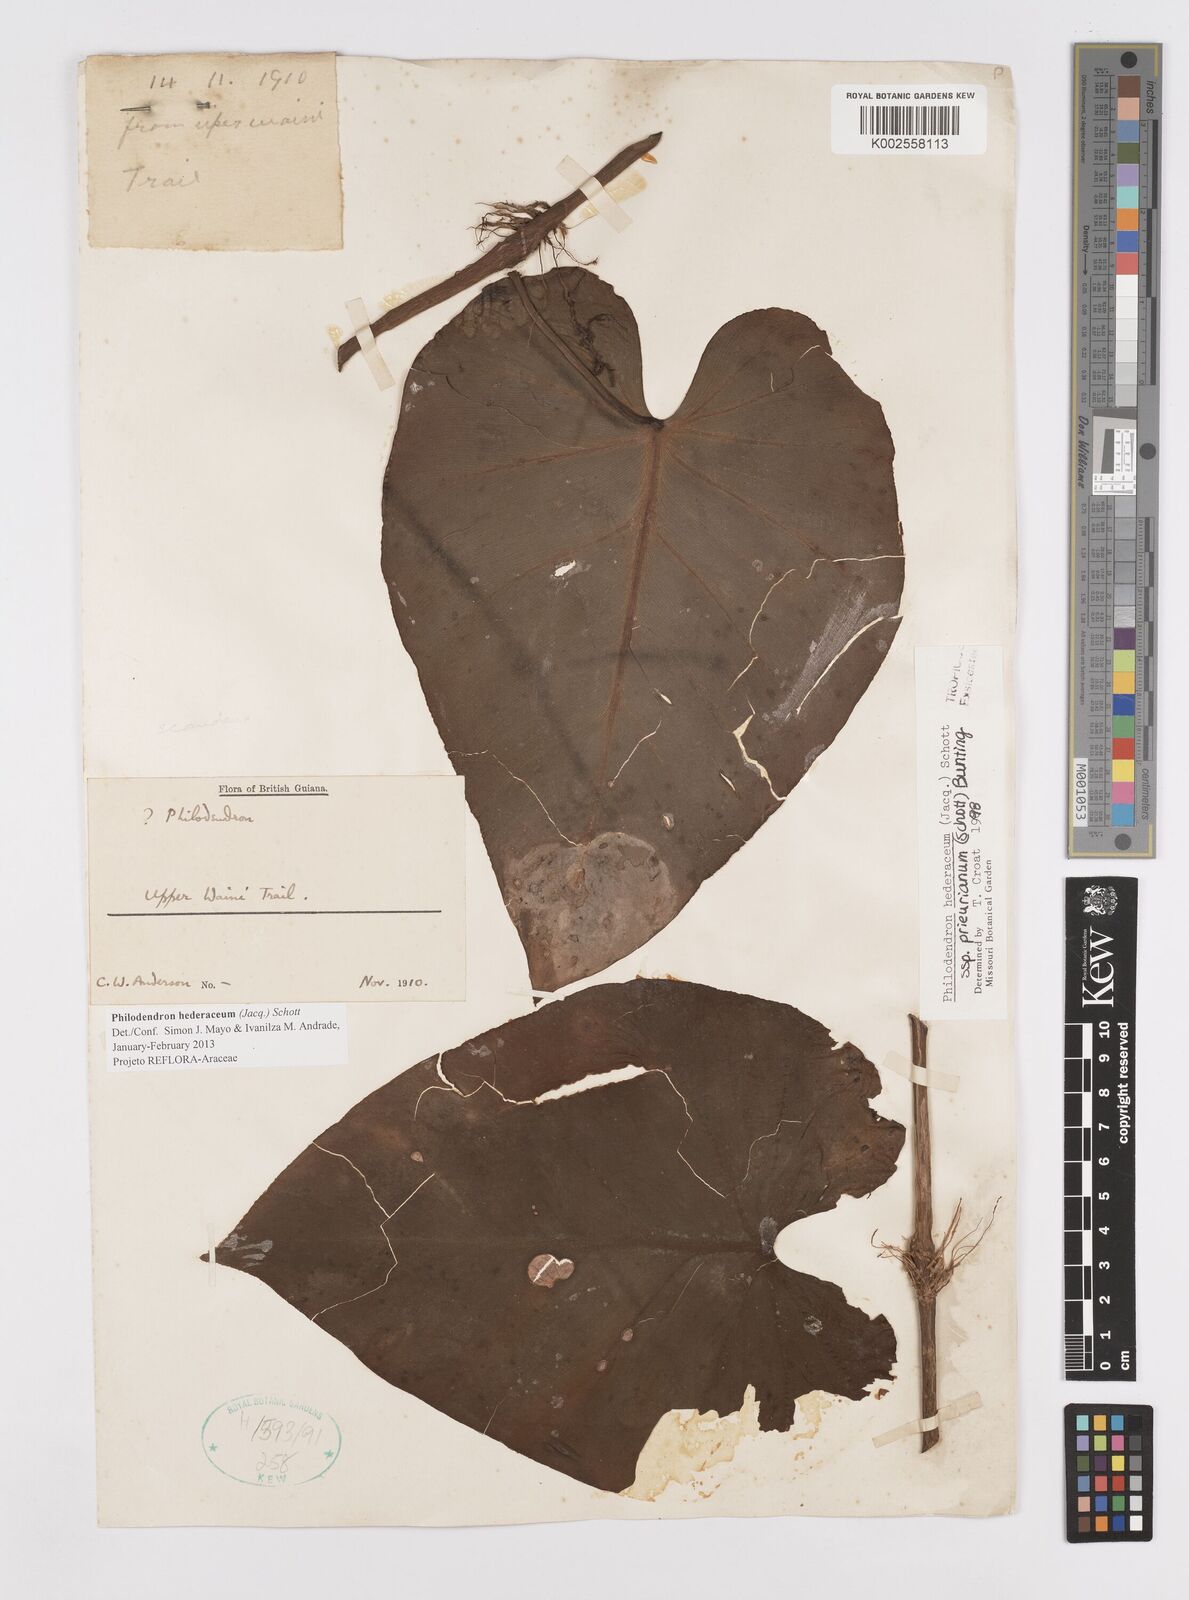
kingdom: Plantae
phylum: Tracheophyta
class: Liliopsida
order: Alismatales
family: Araceae
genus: Philodendron
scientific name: Philodendron hederaceum
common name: Vilevine
